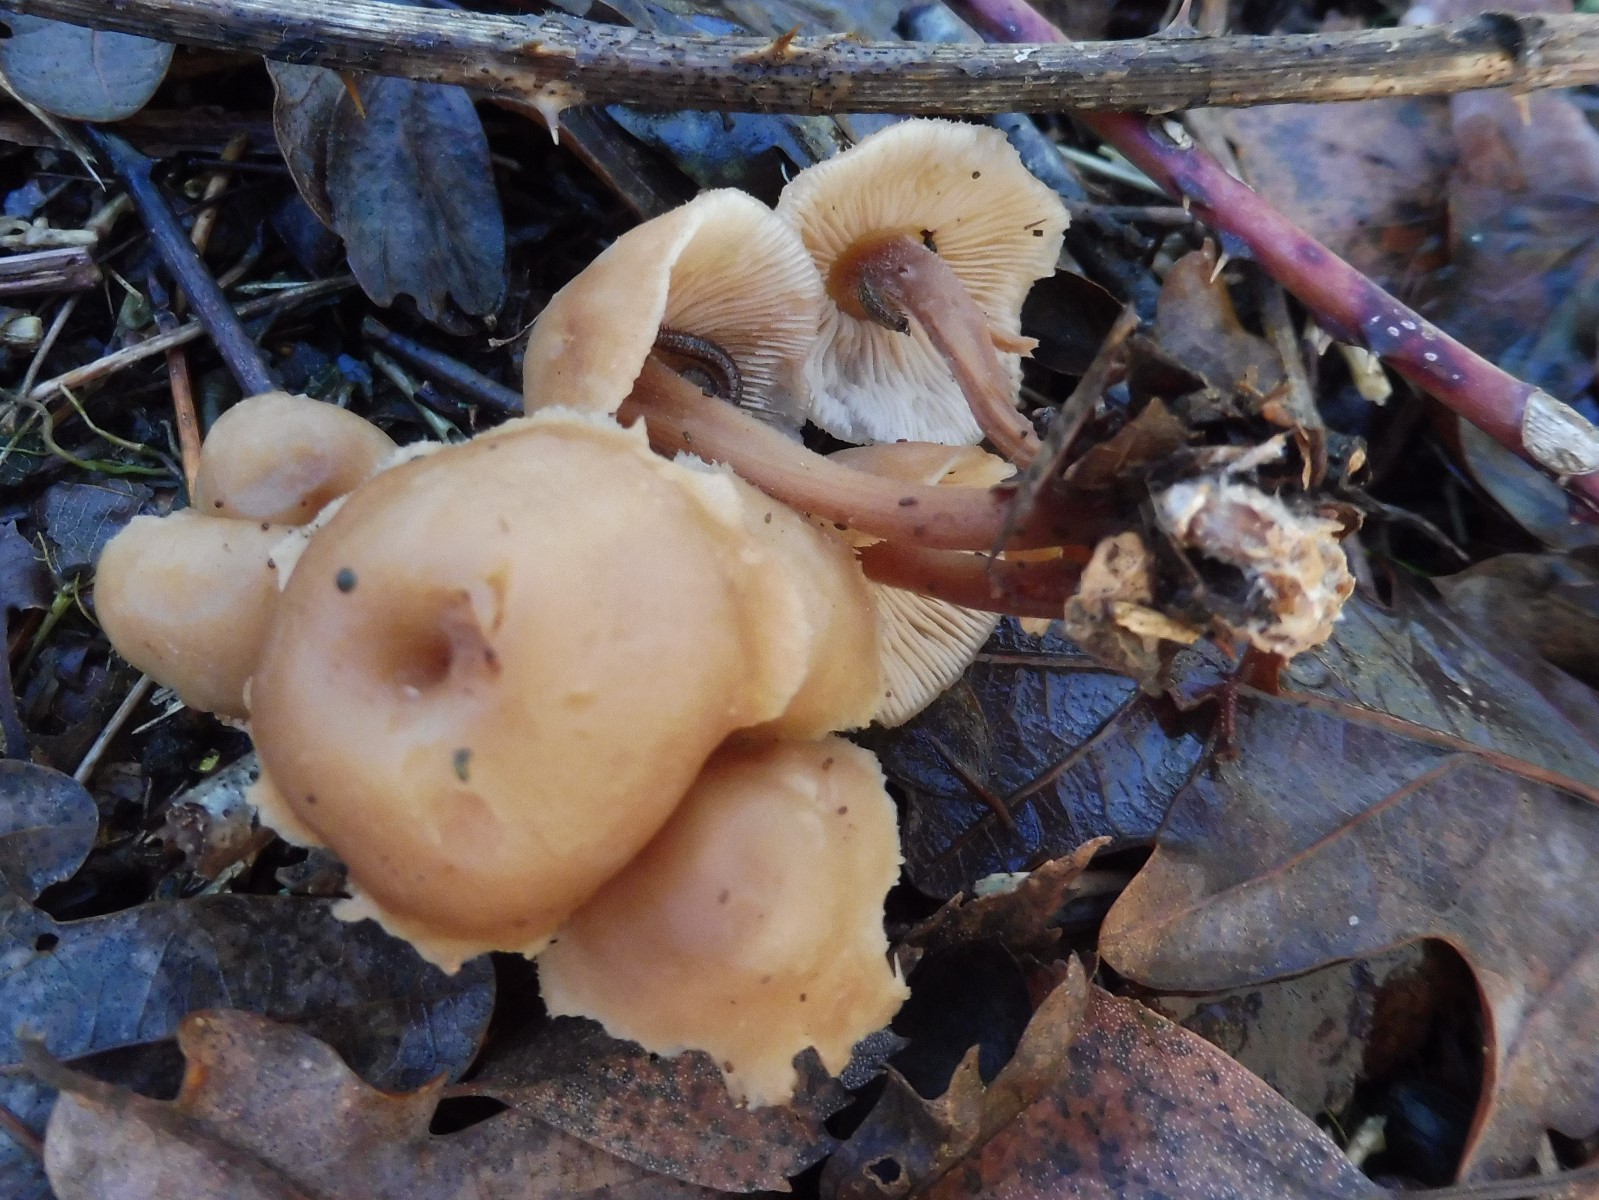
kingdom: Fungi
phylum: Basidiomycota
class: Agaricomycetes
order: Agaricales
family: Omphalotaceae
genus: Collybiopsis
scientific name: Collybiopsis confluens
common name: knippe-fladhat
